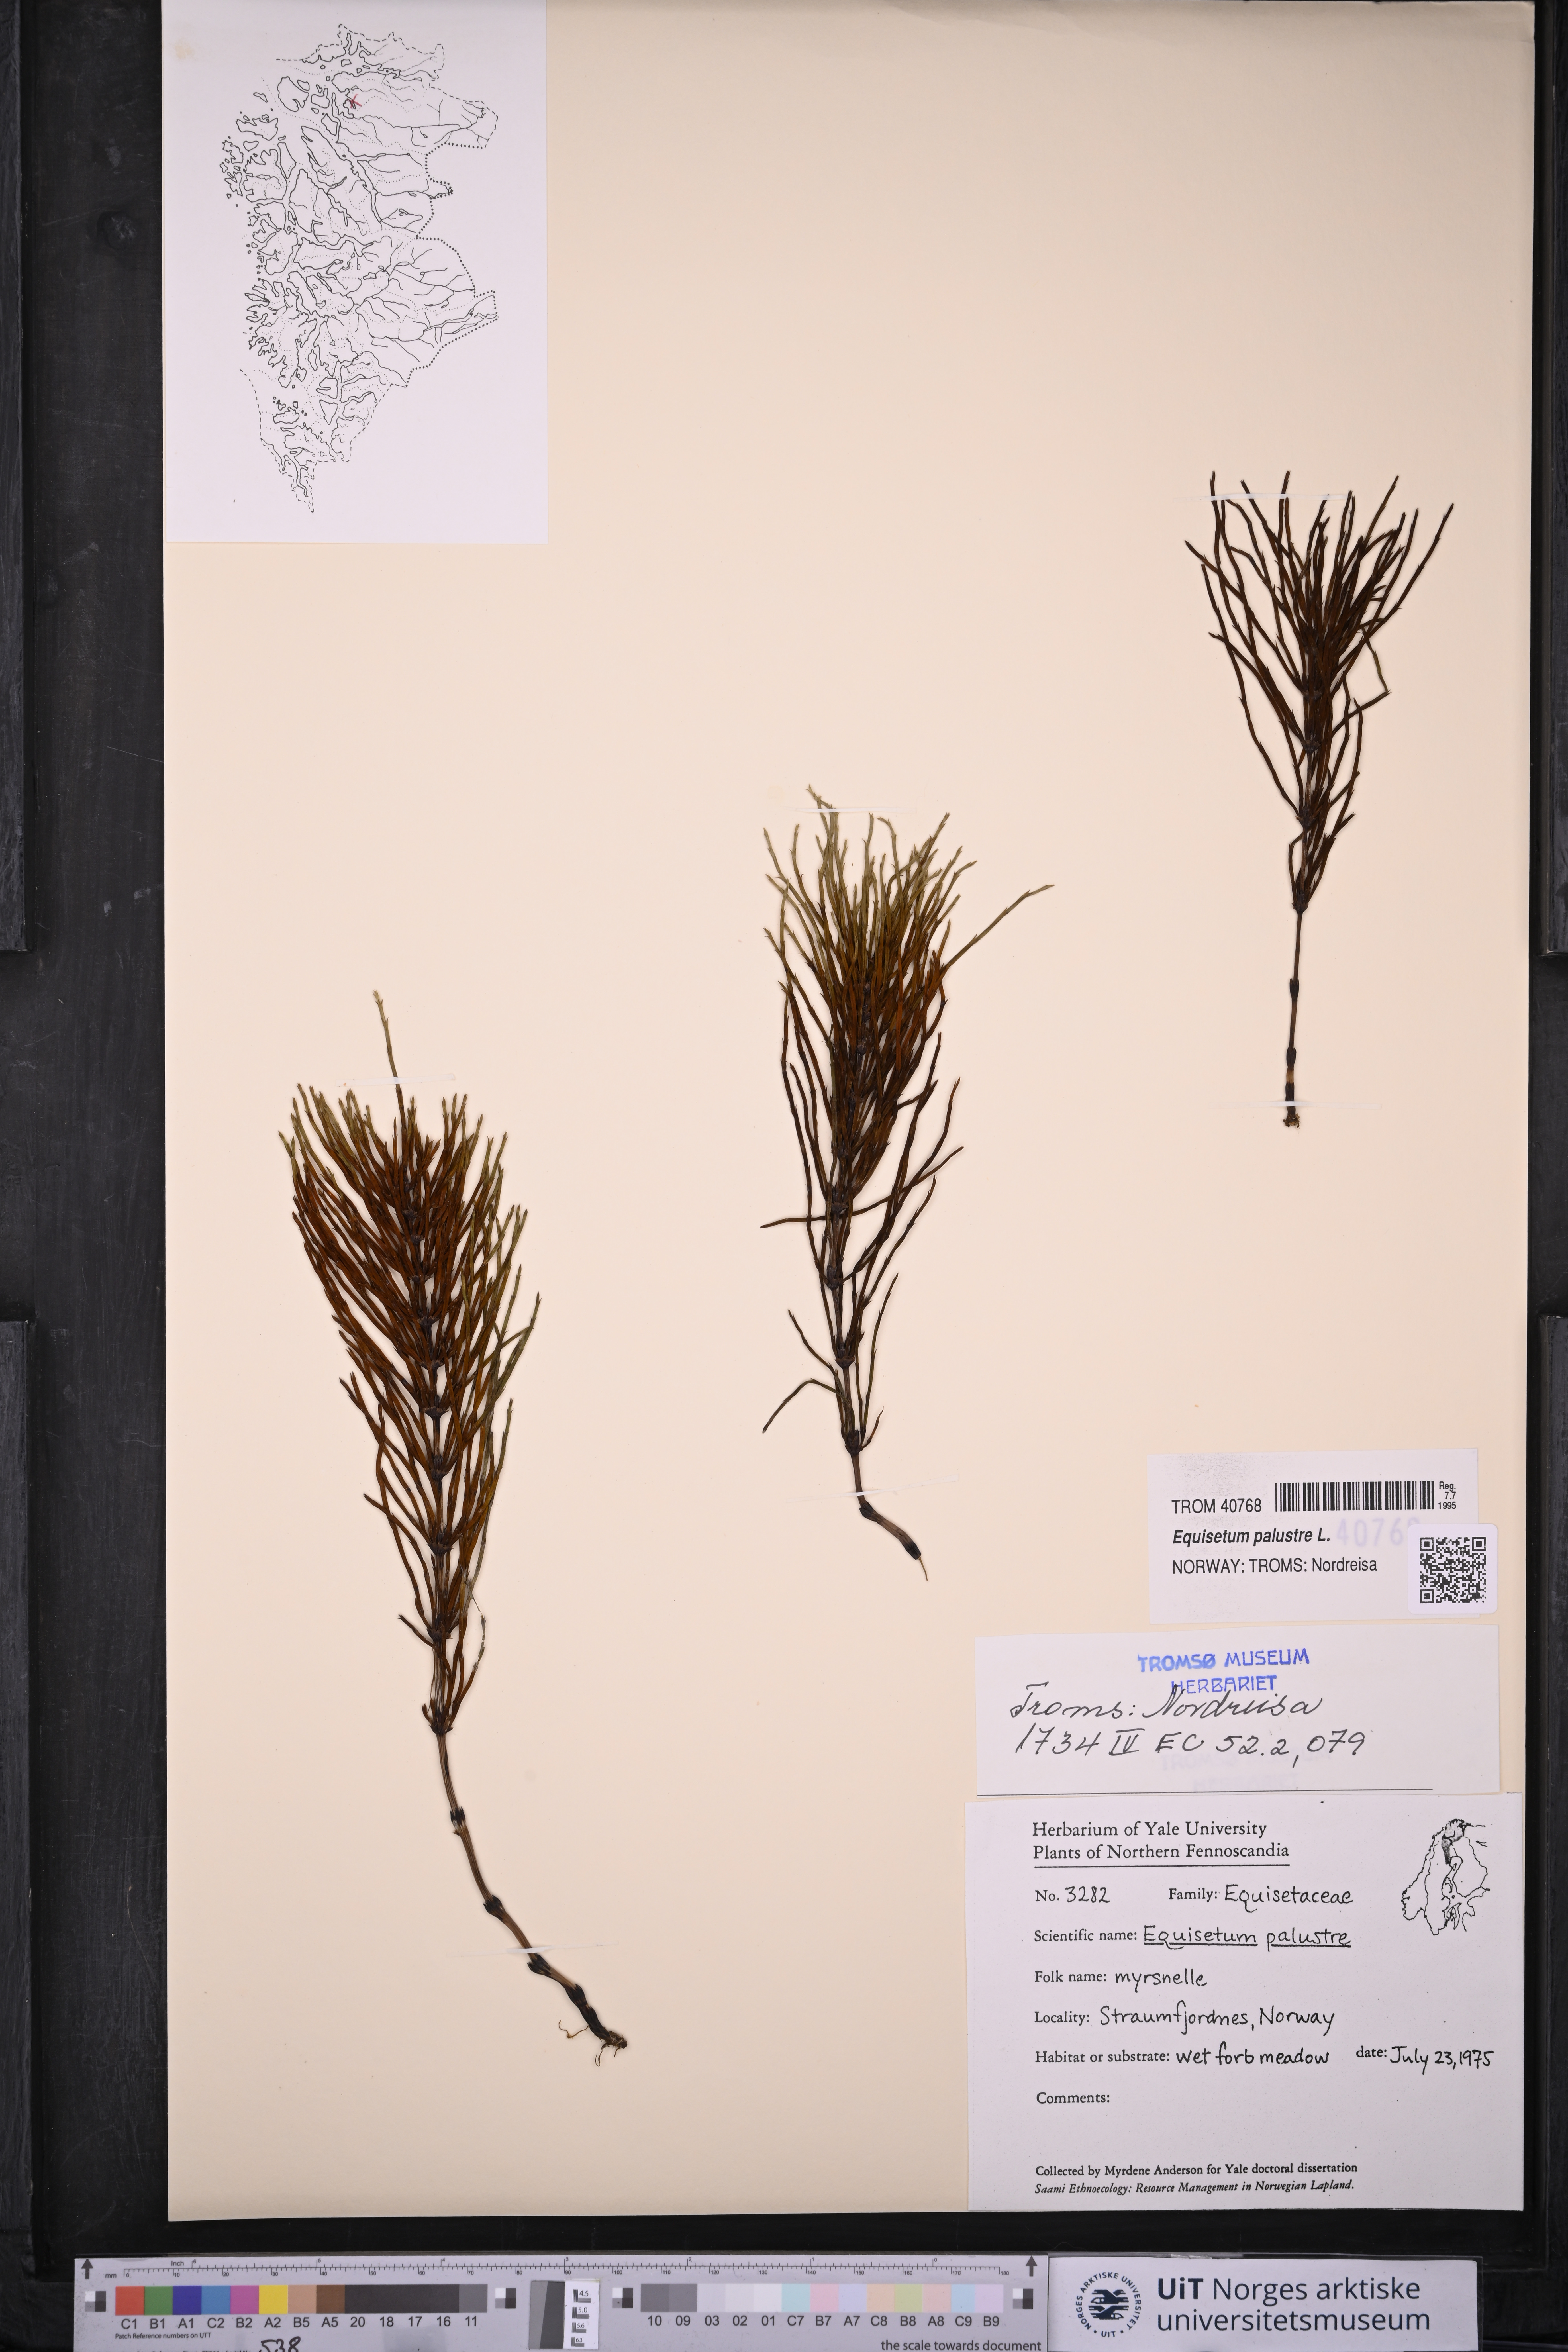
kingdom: Plantae
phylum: Tracheophyta
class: Polypodiopsida
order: Equisetales
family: Equisetaceae
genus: Equisetum
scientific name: Equisetum palustre
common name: Marsh horsetail
